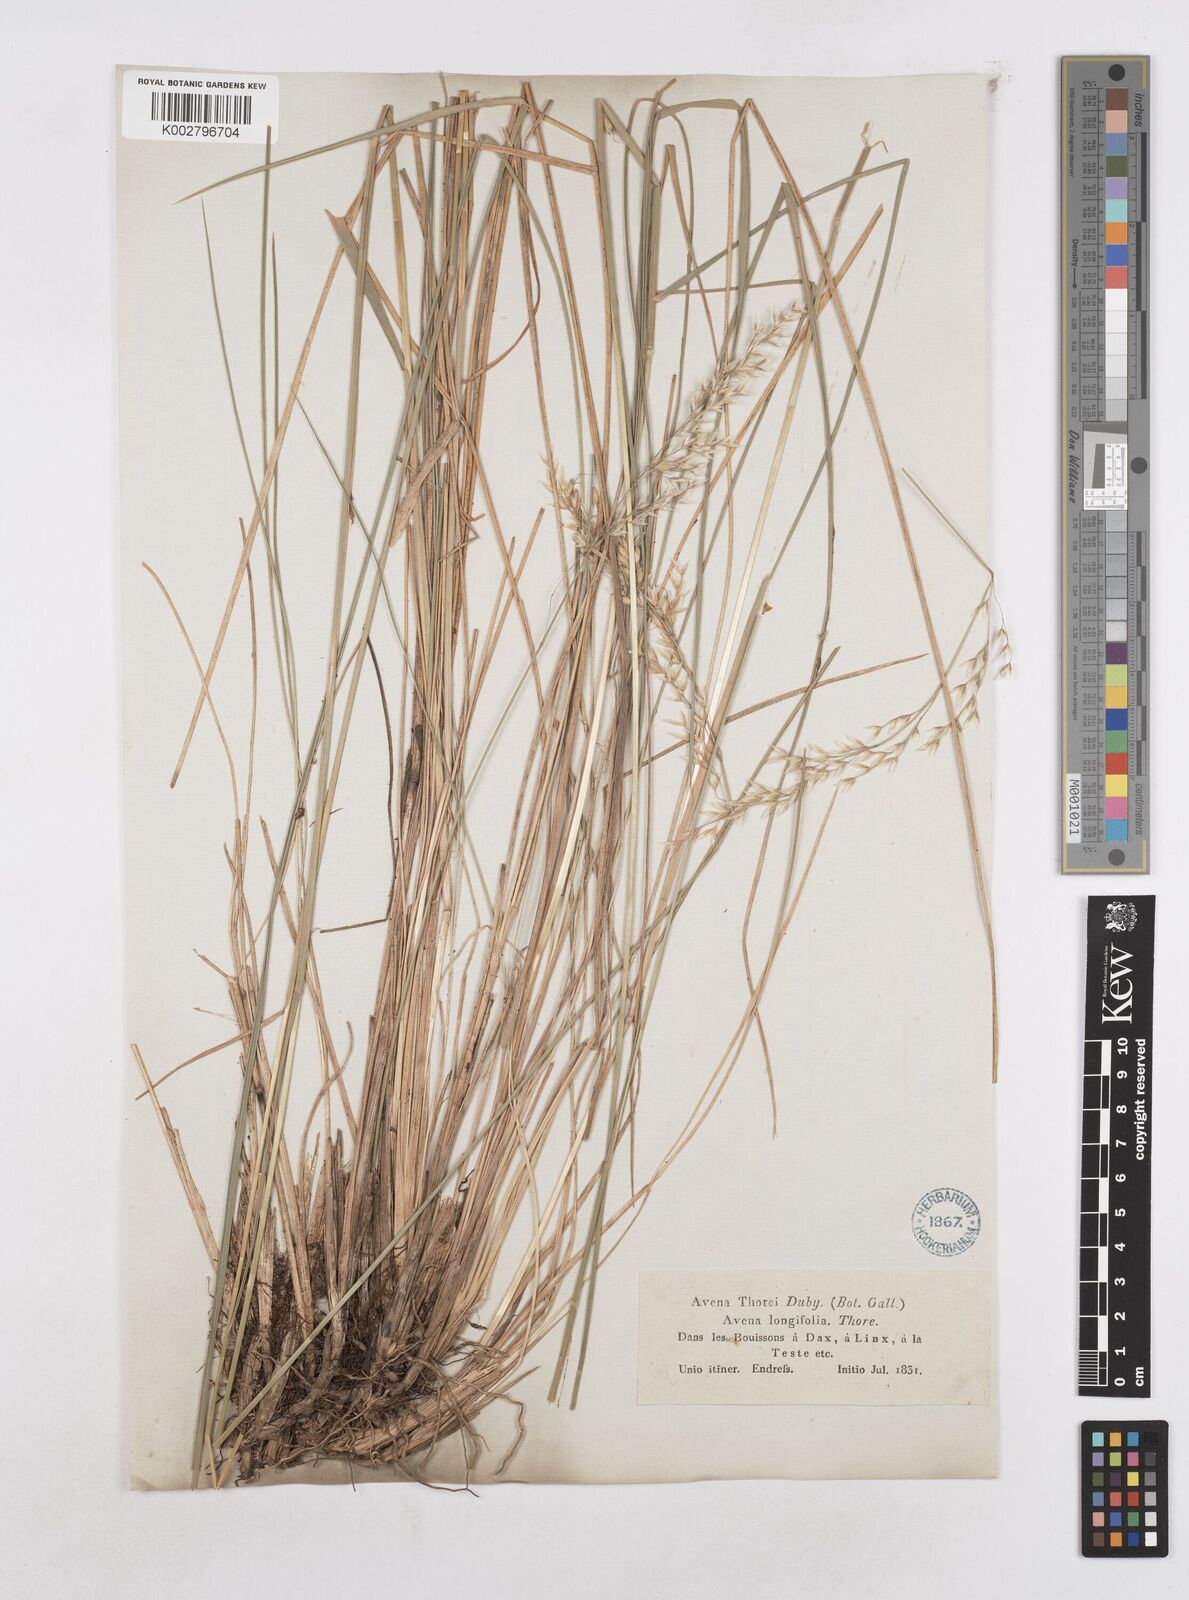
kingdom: Plantae
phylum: Tracheophyta
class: Liliopsida
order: Poales
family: Poaceae
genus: Arrhenatherum
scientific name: Arrhenatherum longifolium
